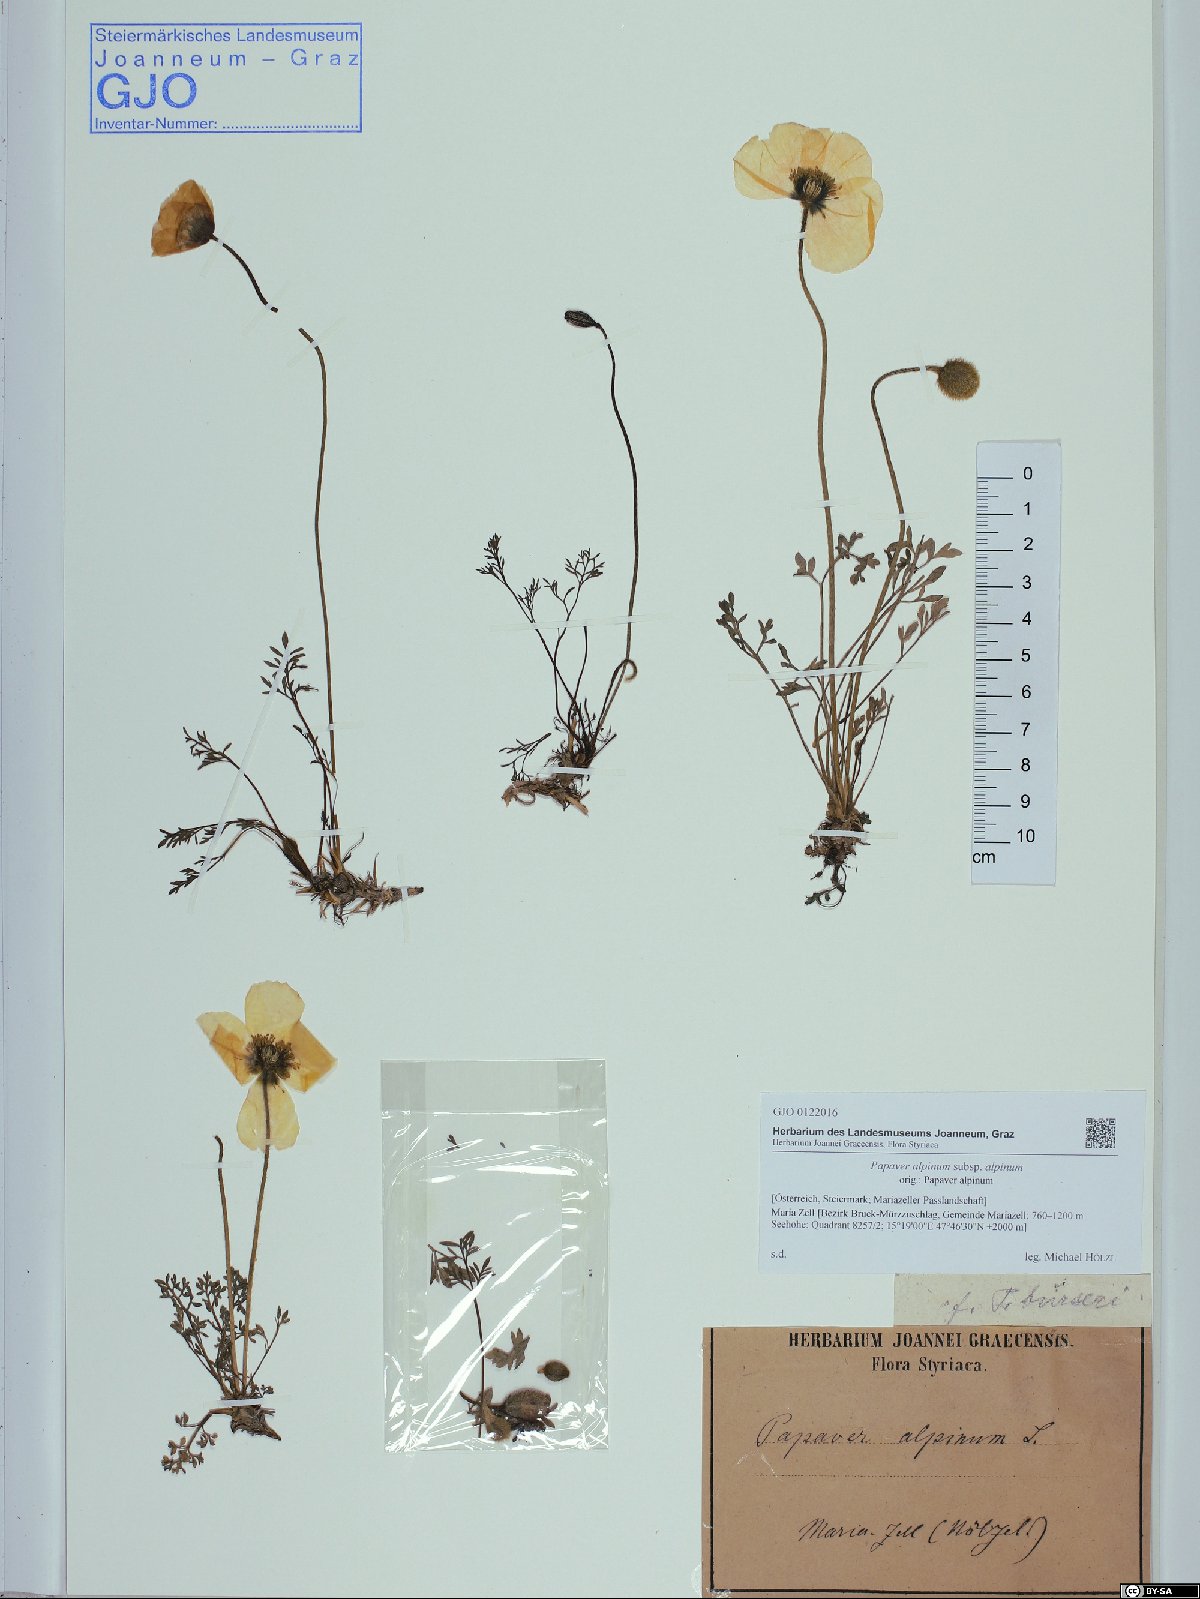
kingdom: Plantae
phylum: Tracheophyta
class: Magnoliopsida
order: Ranunculales
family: Papaveraceae
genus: Papaver
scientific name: Papaver alpinum
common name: Austrian poppy
